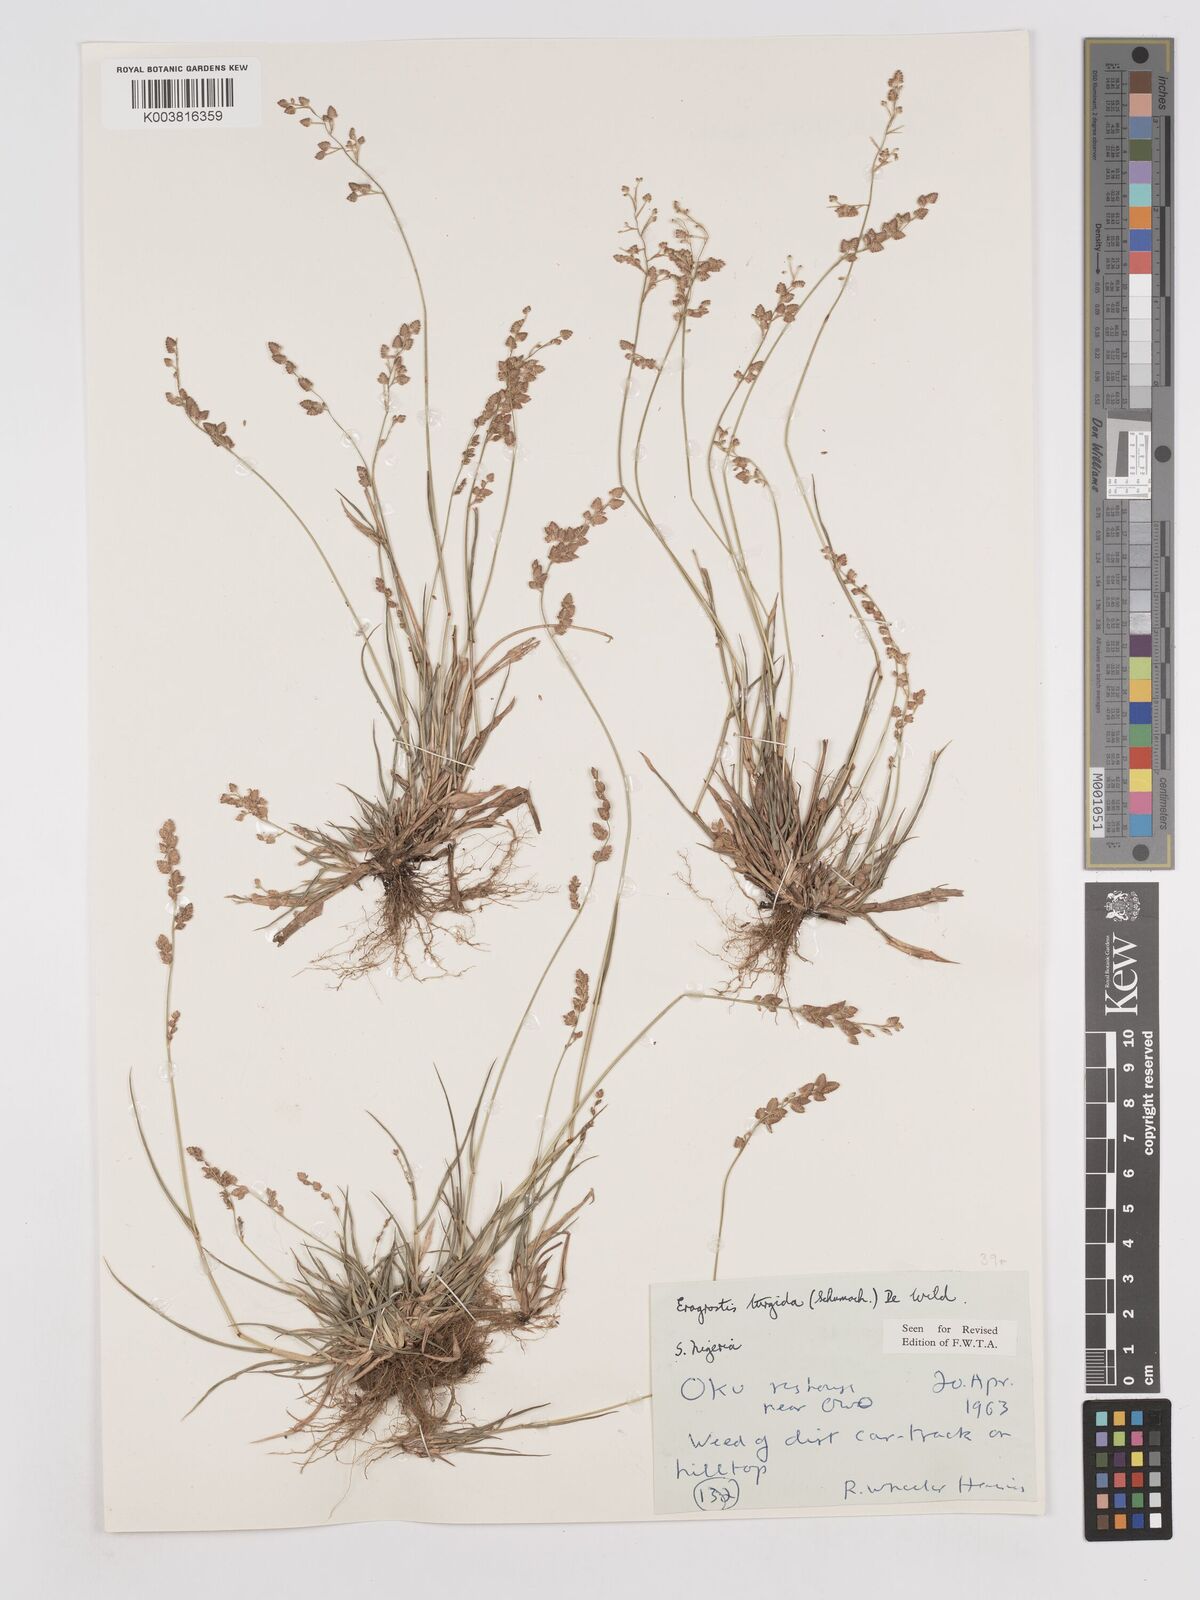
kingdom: Plantae
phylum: Tracheophyta
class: Liliopsida
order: Poales
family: Poaceae
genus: Eragrostis
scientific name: Eragrostis turgida
